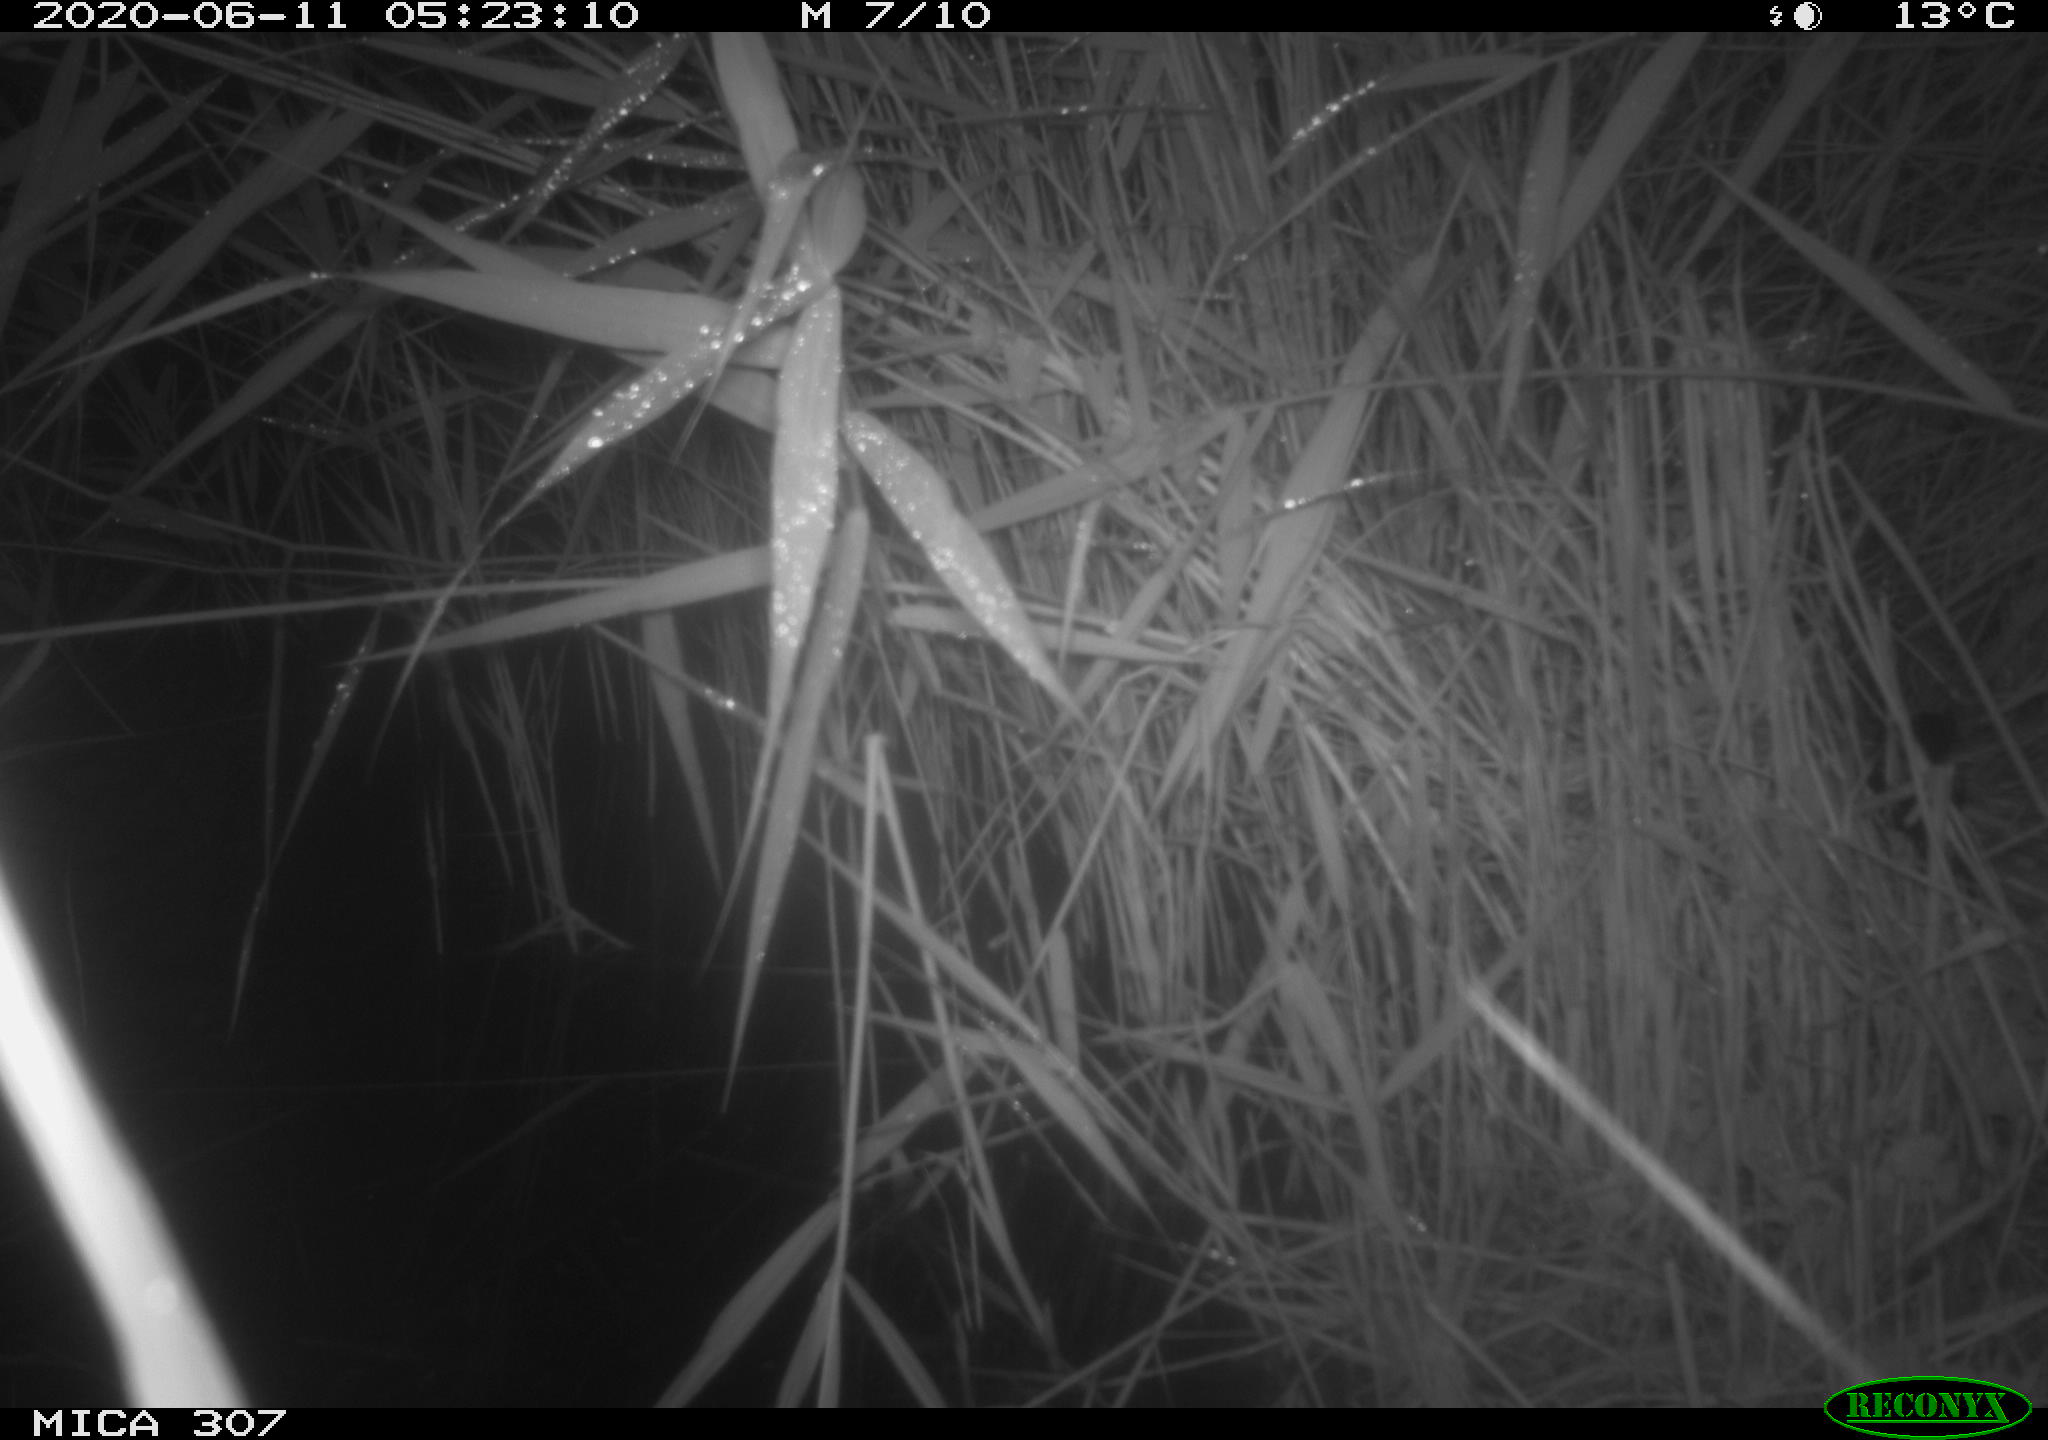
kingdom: Animalia
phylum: Chordata
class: Mammalia
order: Rodentia
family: Muridae
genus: Rattus
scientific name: Rattus norvegicus
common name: Brown rat
